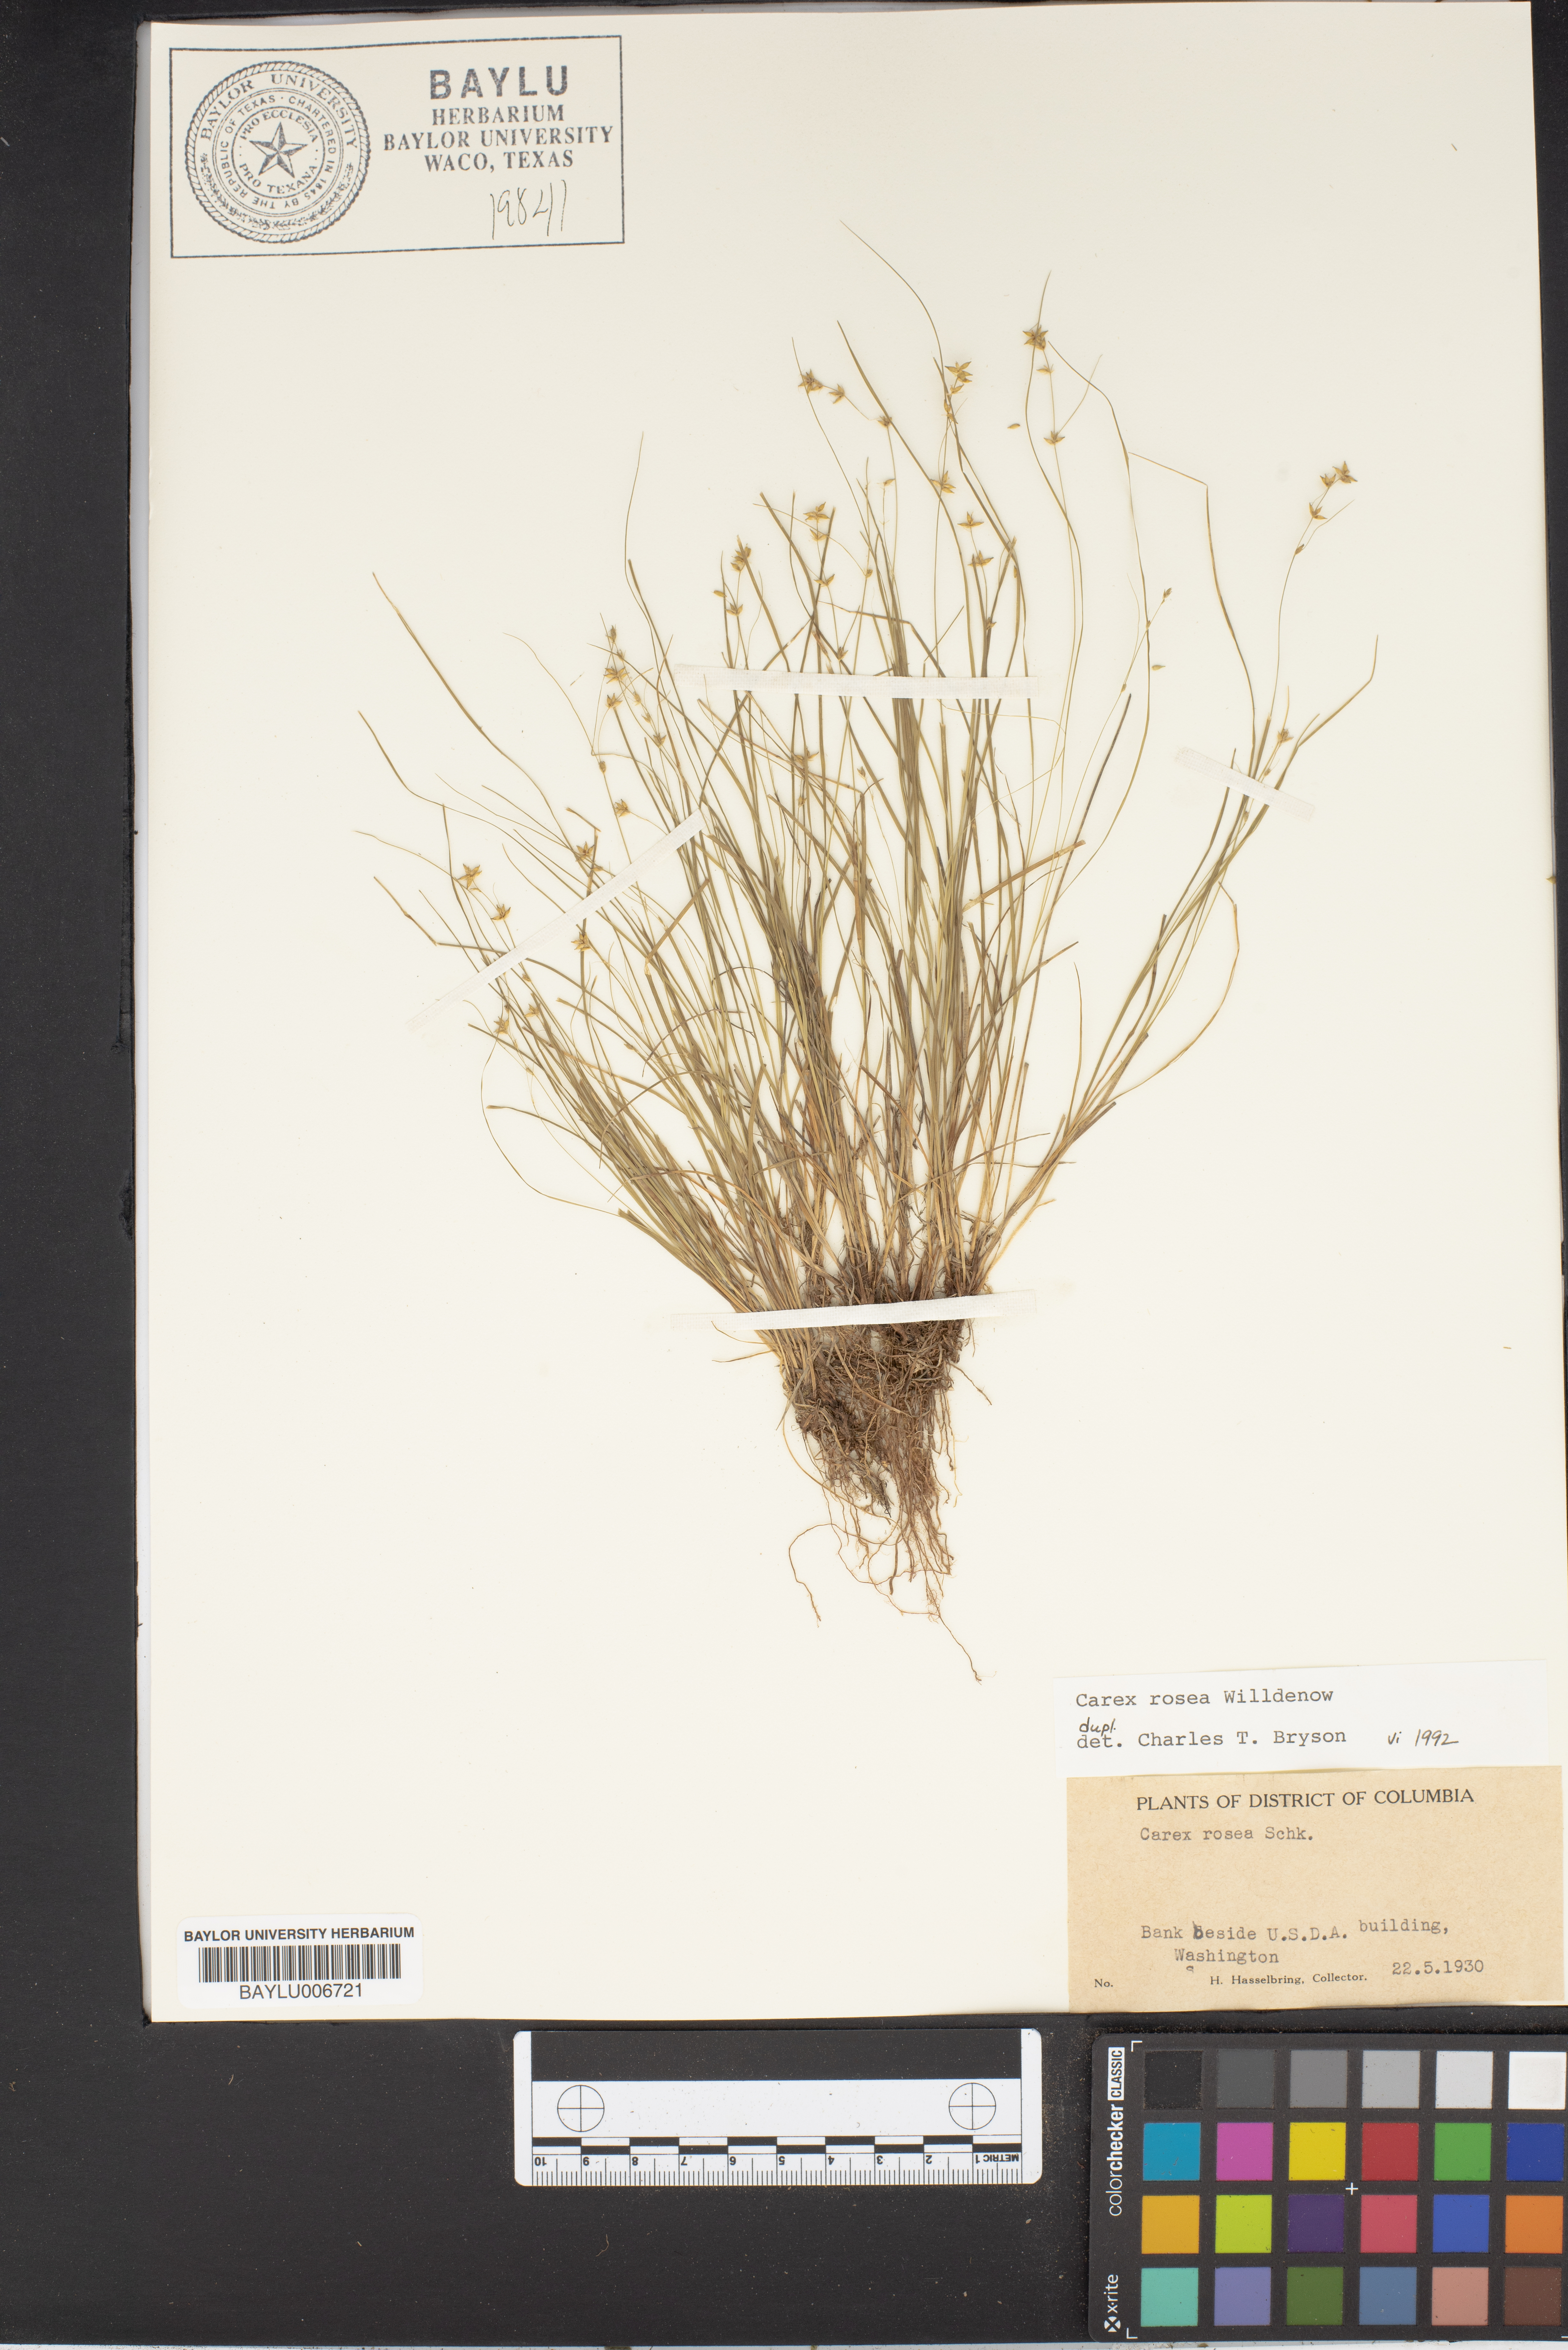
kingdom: Plantae
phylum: Tracheophyta
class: Liliopsida
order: Poales
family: Cyperaceae
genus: Carex
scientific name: Carex rosea
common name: Curly-styled wood sedge
